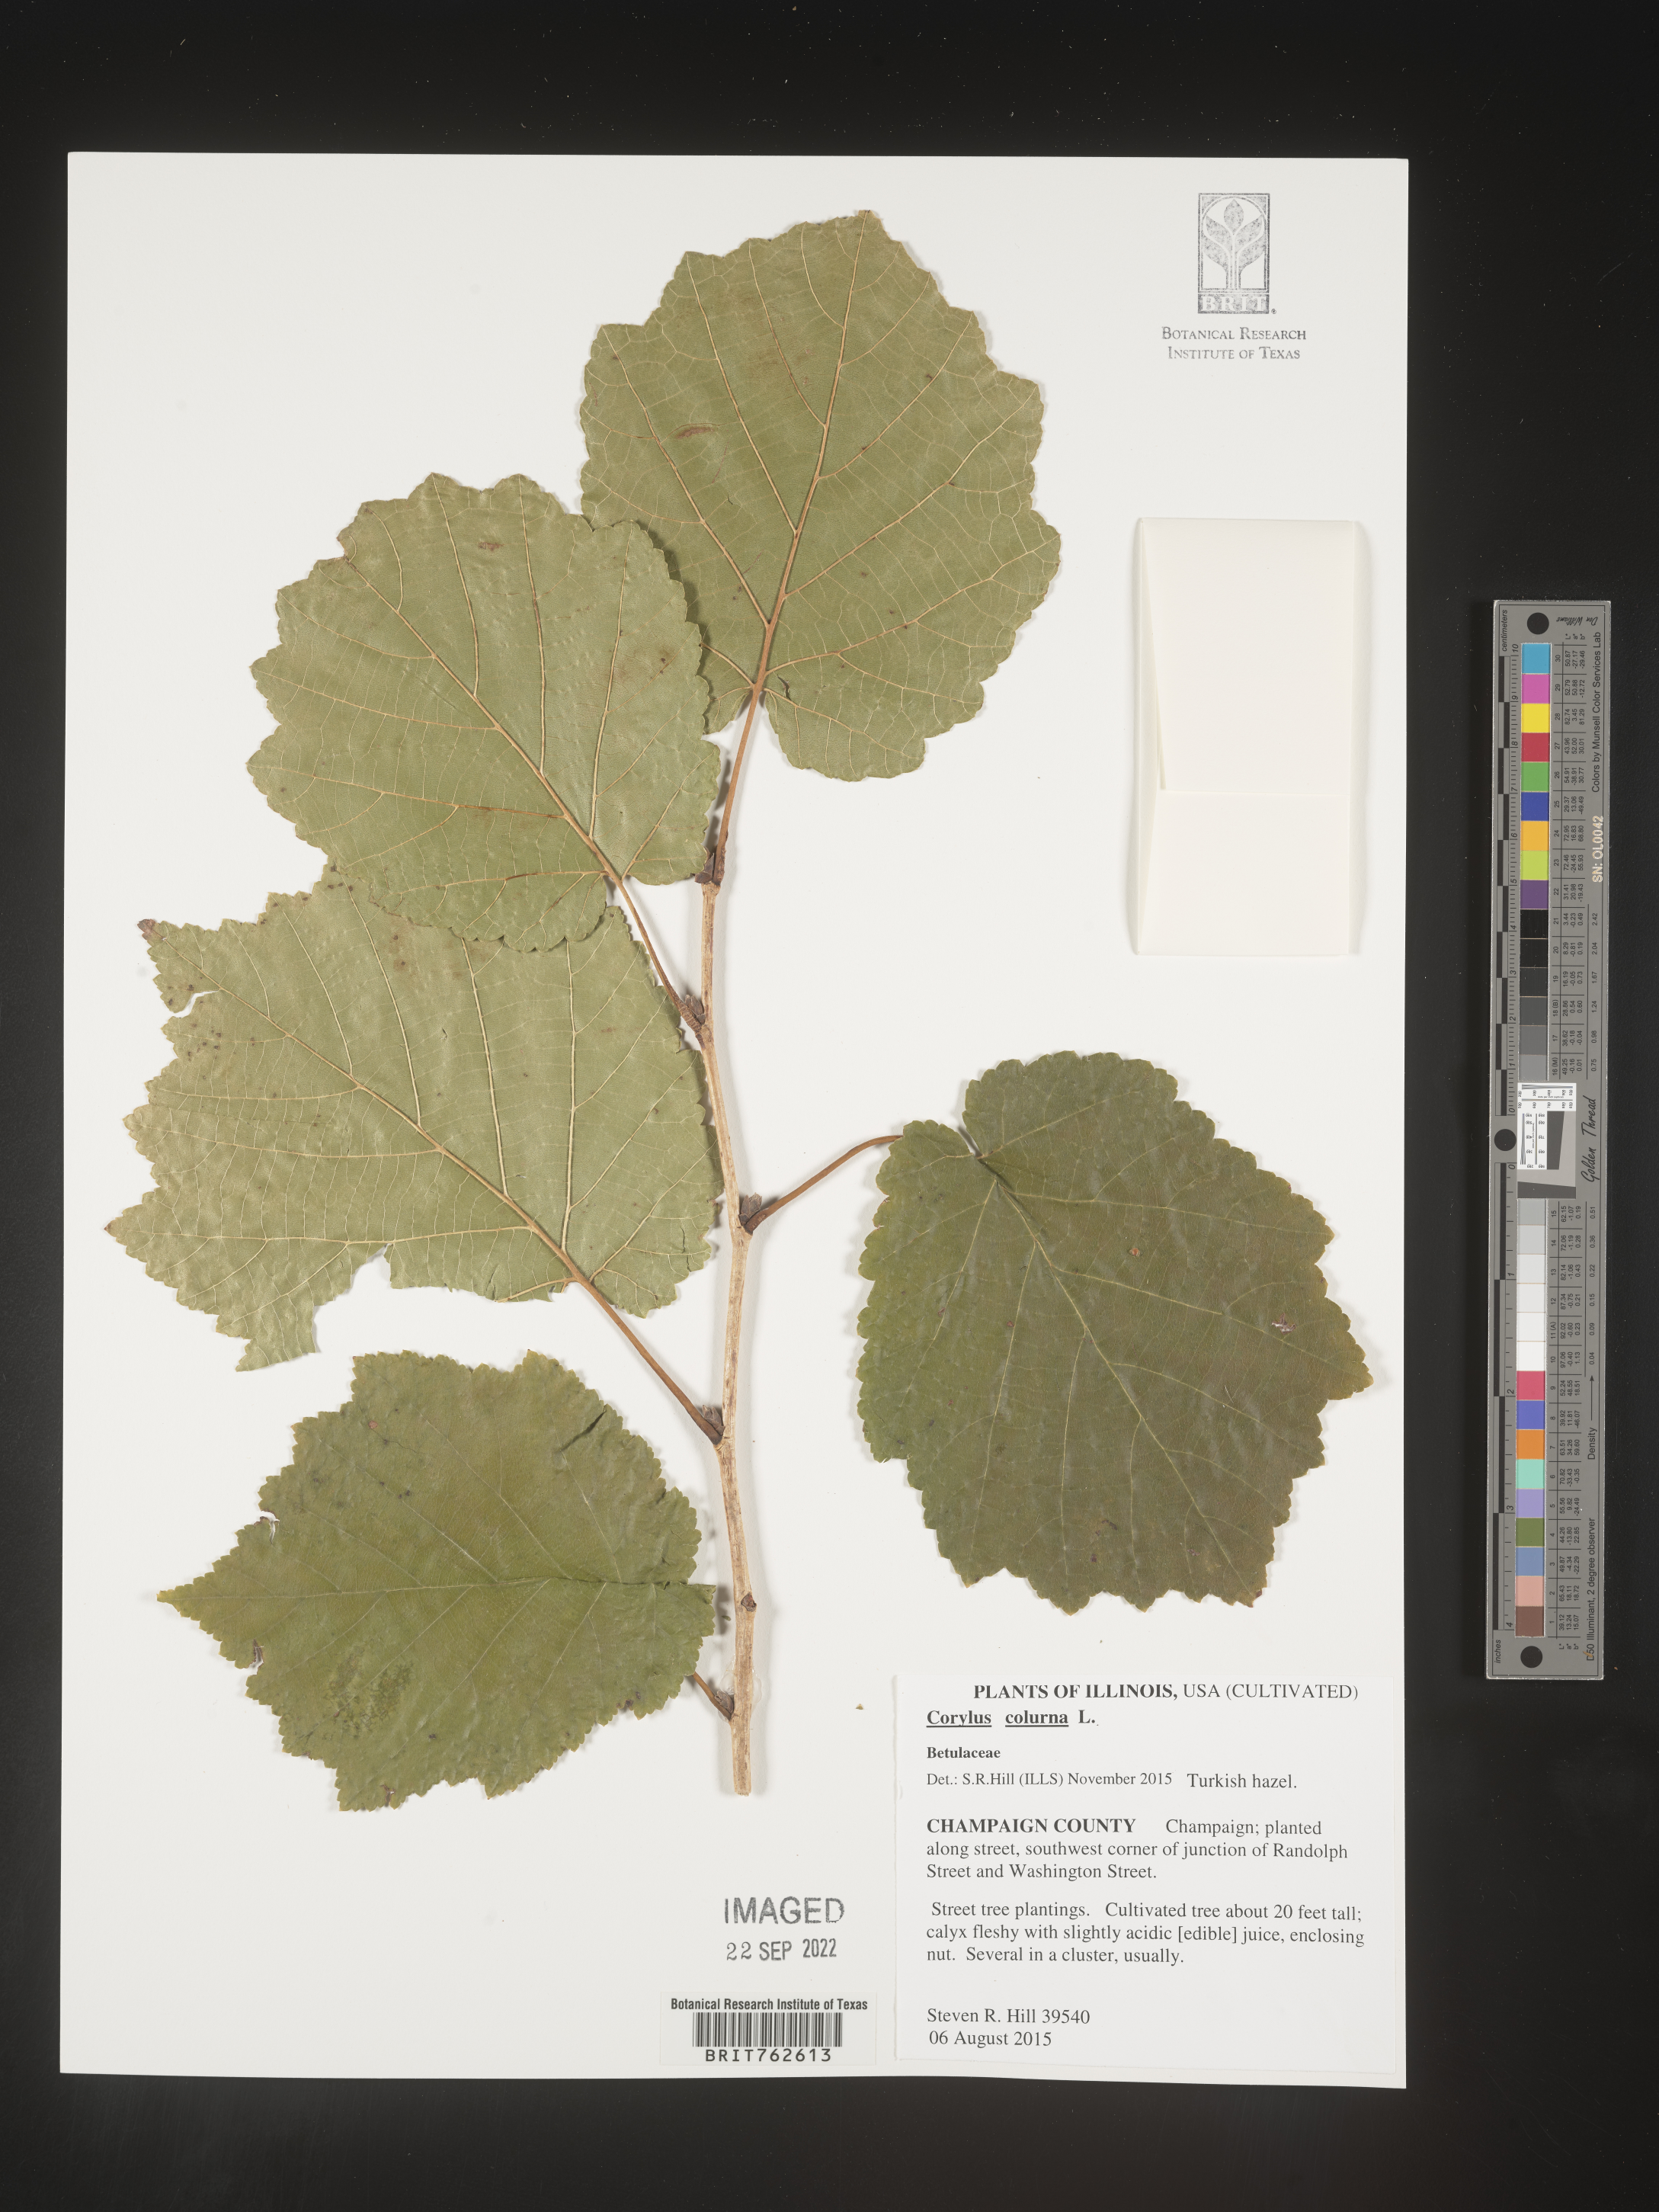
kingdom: Plantae
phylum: Tracheophyta
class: Magnoliopsida
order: Fagales
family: Betulaceae
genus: Corylus
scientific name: Corylus
